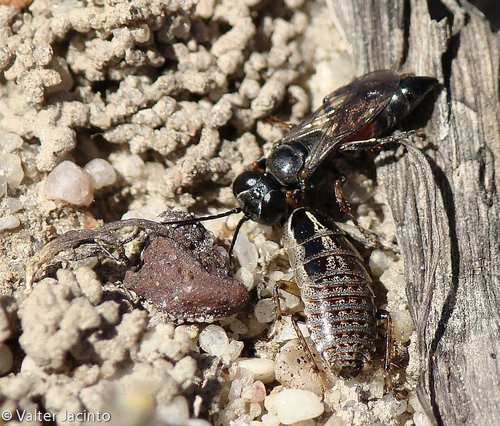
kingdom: Animalia
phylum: Arthropoda
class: Insecta
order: Blattodea
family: Ectobiidae
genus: Phyllodromica
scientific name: Phyllodromica subaptera
